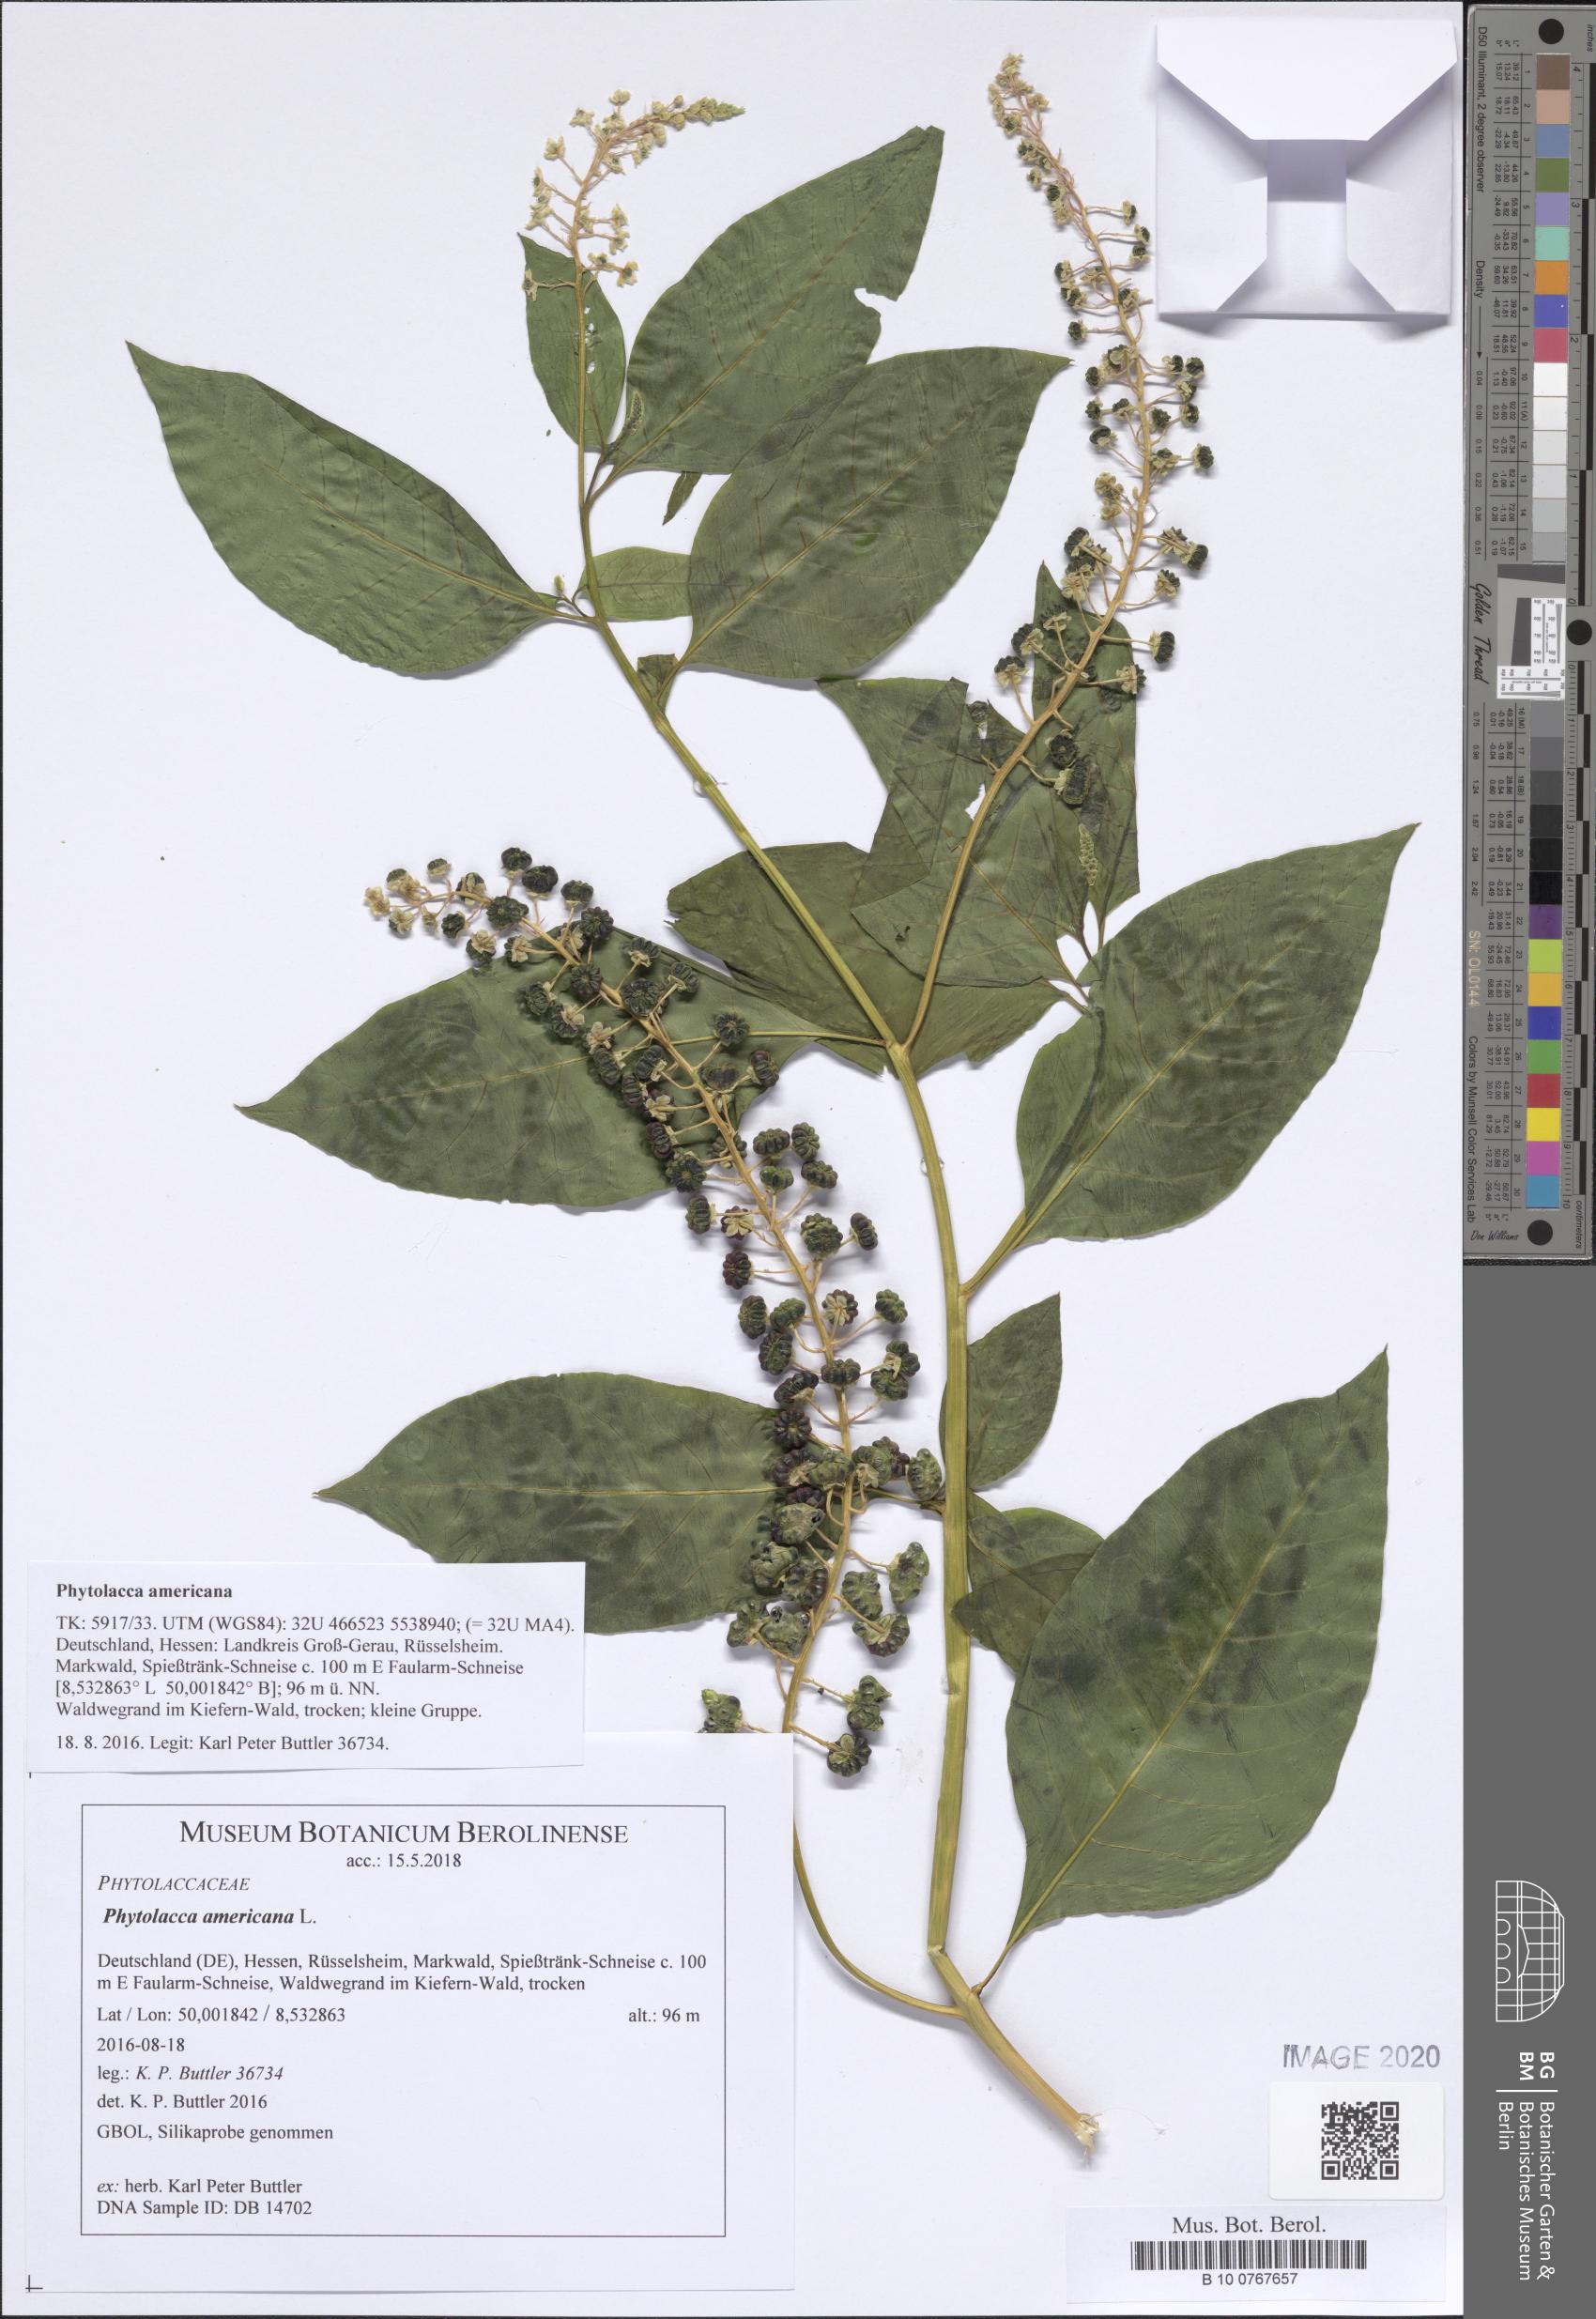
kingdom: Plantae
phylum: Tracheophyta
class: Magnoliopsida
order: Caryophyllales
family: Phytolaccaceae
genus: Phytolacca
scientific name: Phytolacca americana
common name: American pokeweed
